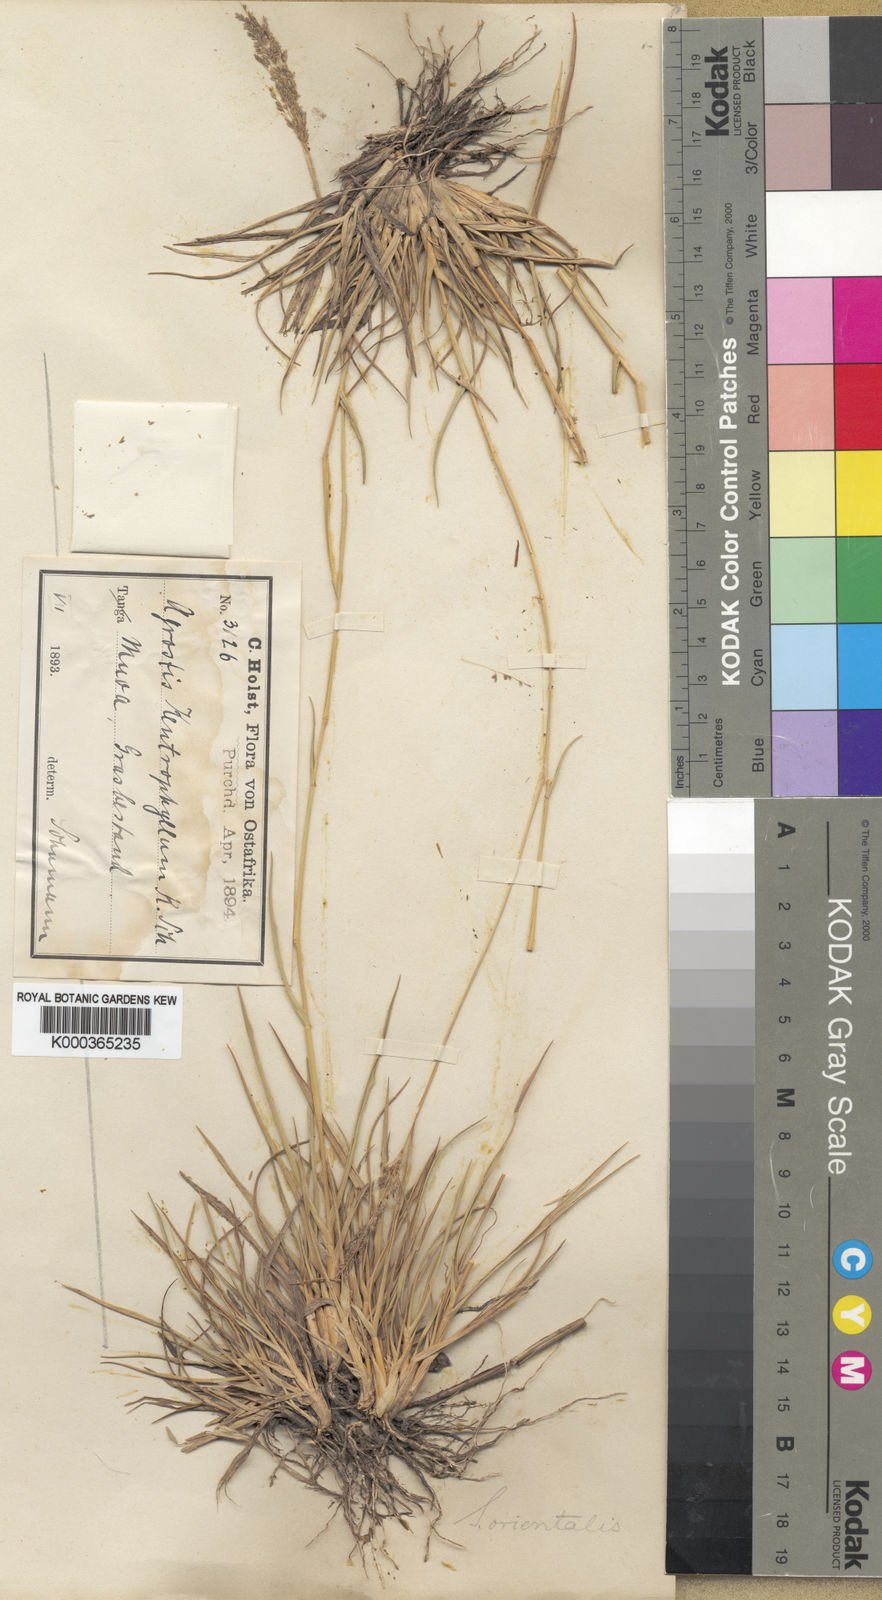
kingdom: Plantae
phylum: Tracheophyta
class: Liliopsida
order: Poales
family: Poaceae
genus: Sporobolus
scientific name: Sporobolus ioclados
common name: Pan dropseed
